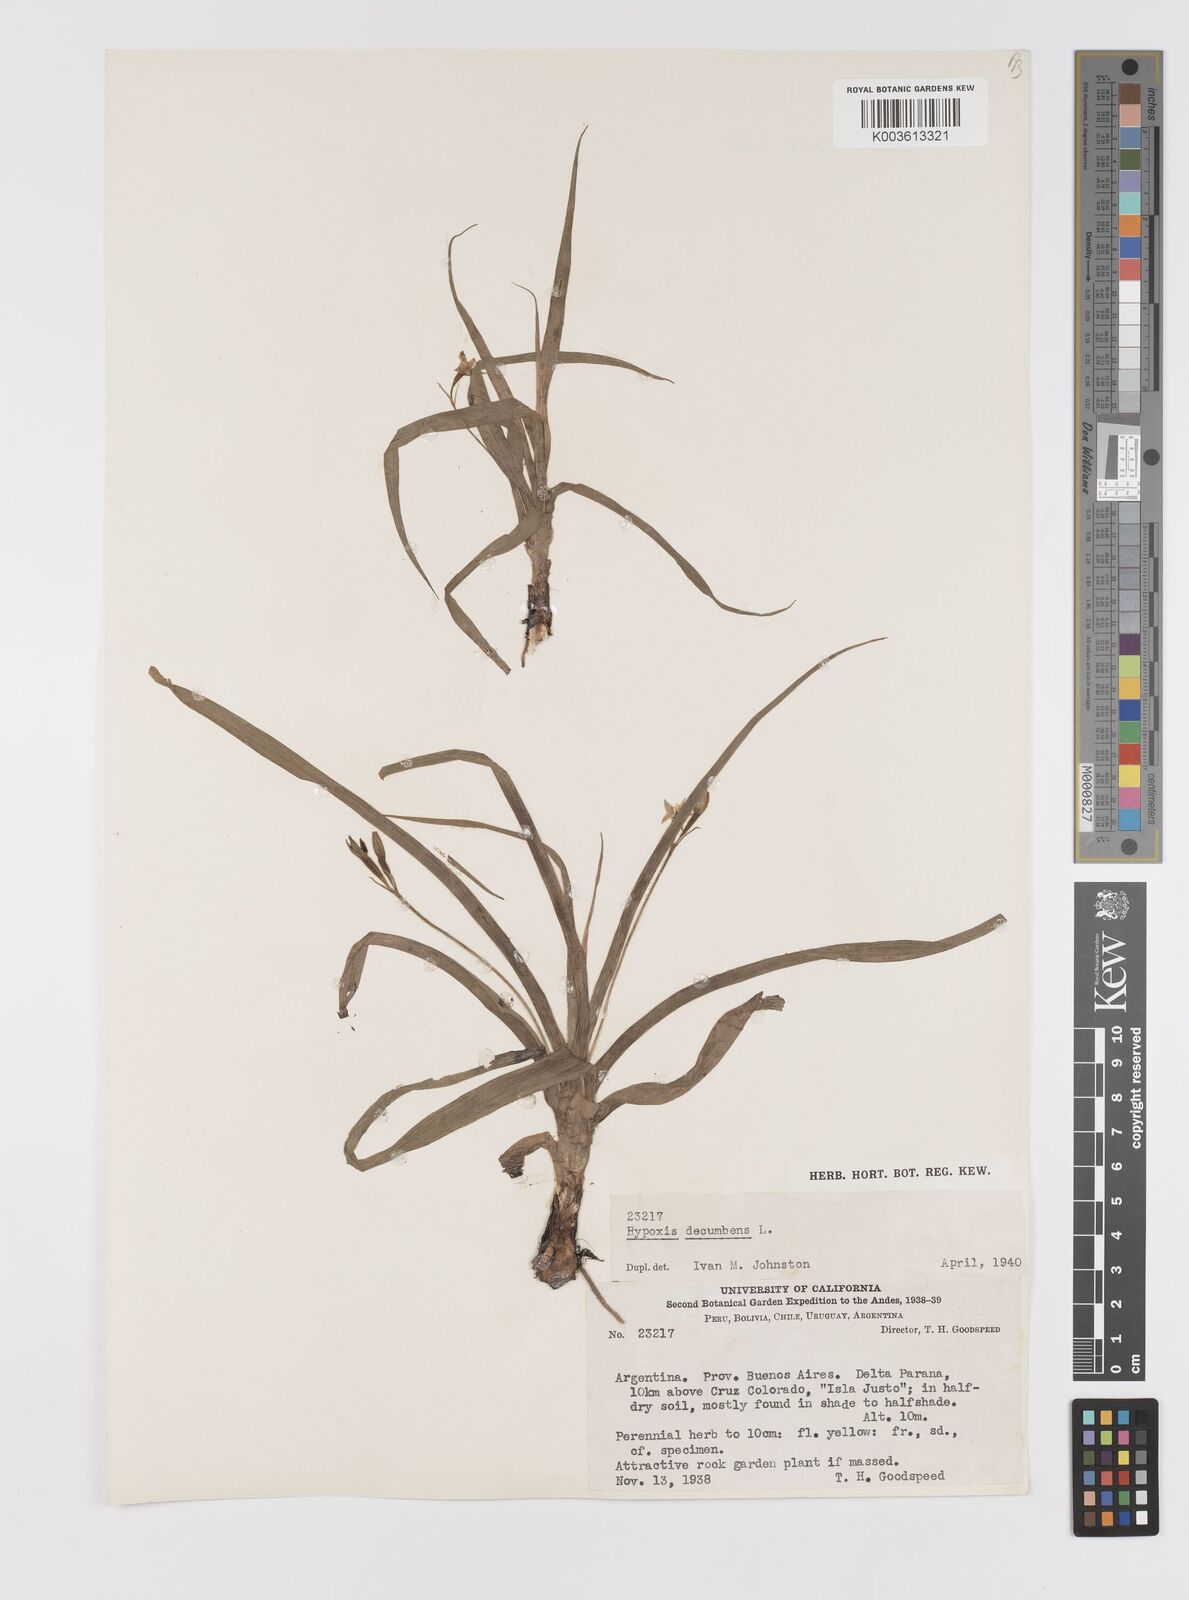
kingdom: Plantae
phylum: Tracheophyta
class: Liliopsida
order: Asparagales
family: Hypoxidaceae
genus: Hypoxis
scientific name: Hypoxis decumbens
